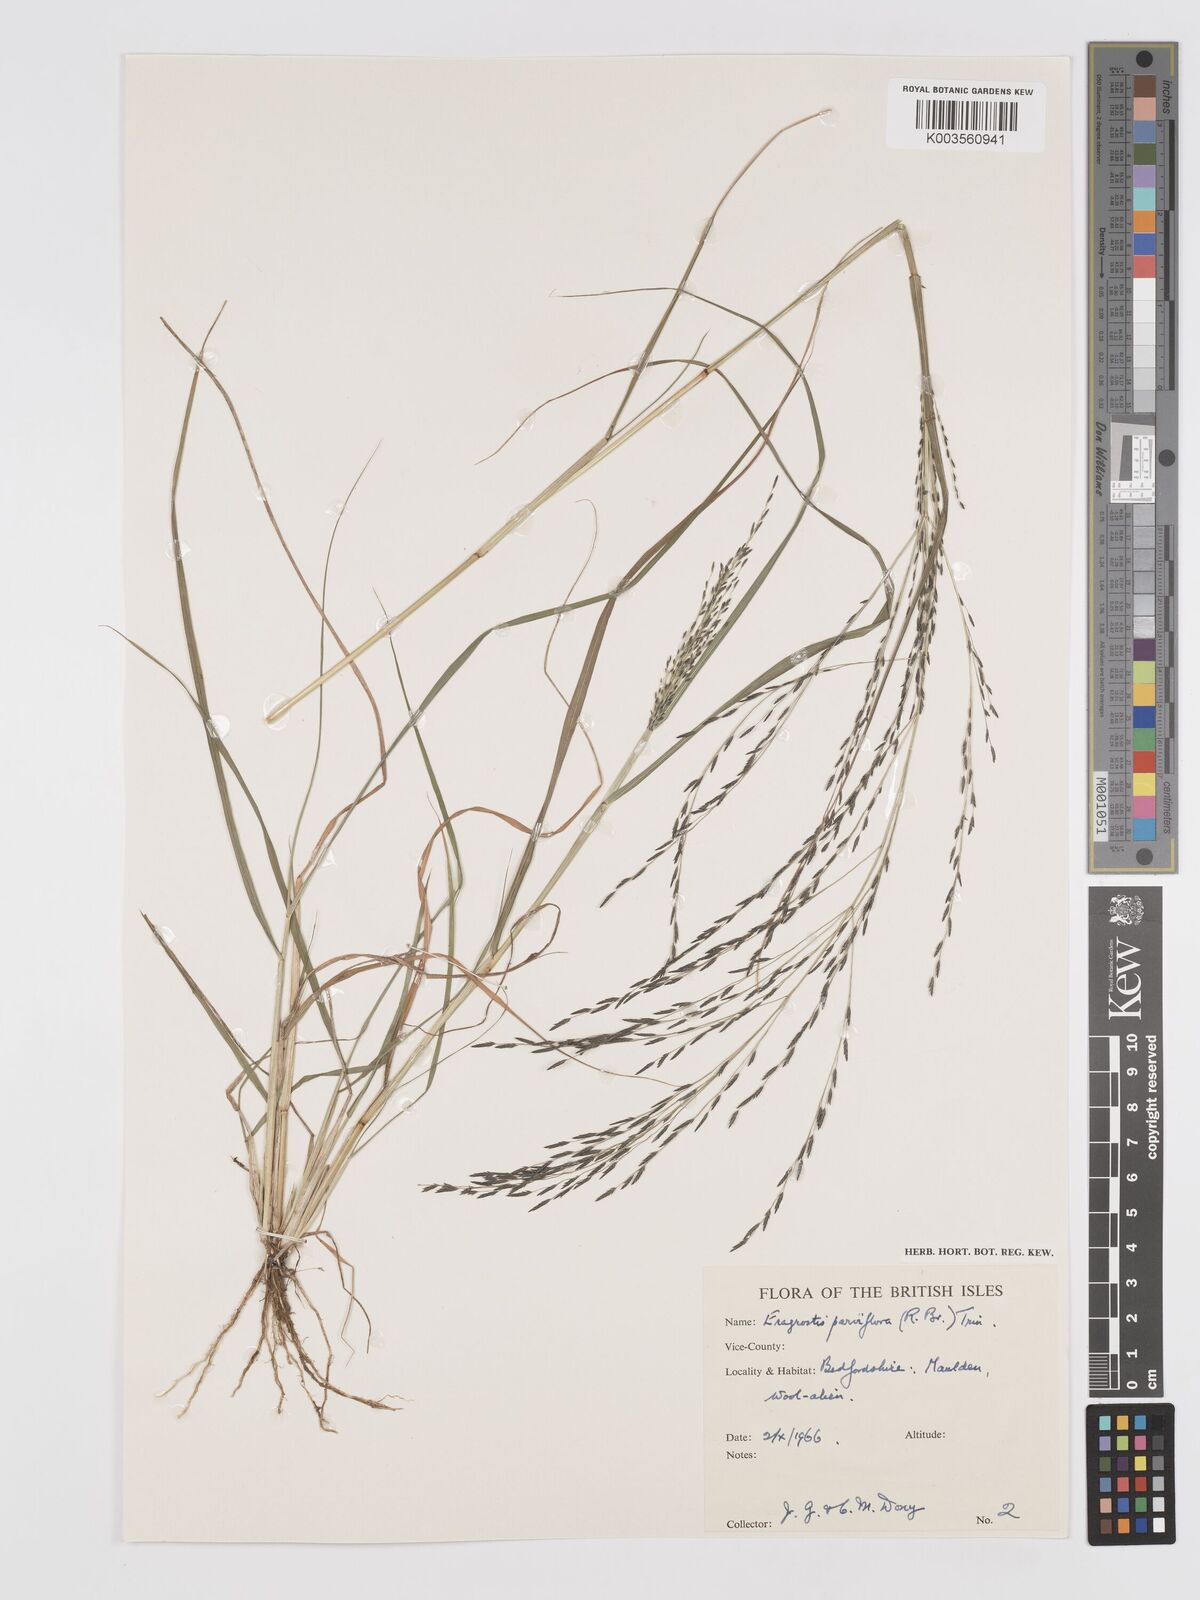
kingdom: Plantae
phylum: Tracheophyta
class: Liliopsida
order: Poales
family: Poaceae
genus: Eragrostis
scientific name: Eragrostis parviflora
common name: Weeping love-grass
